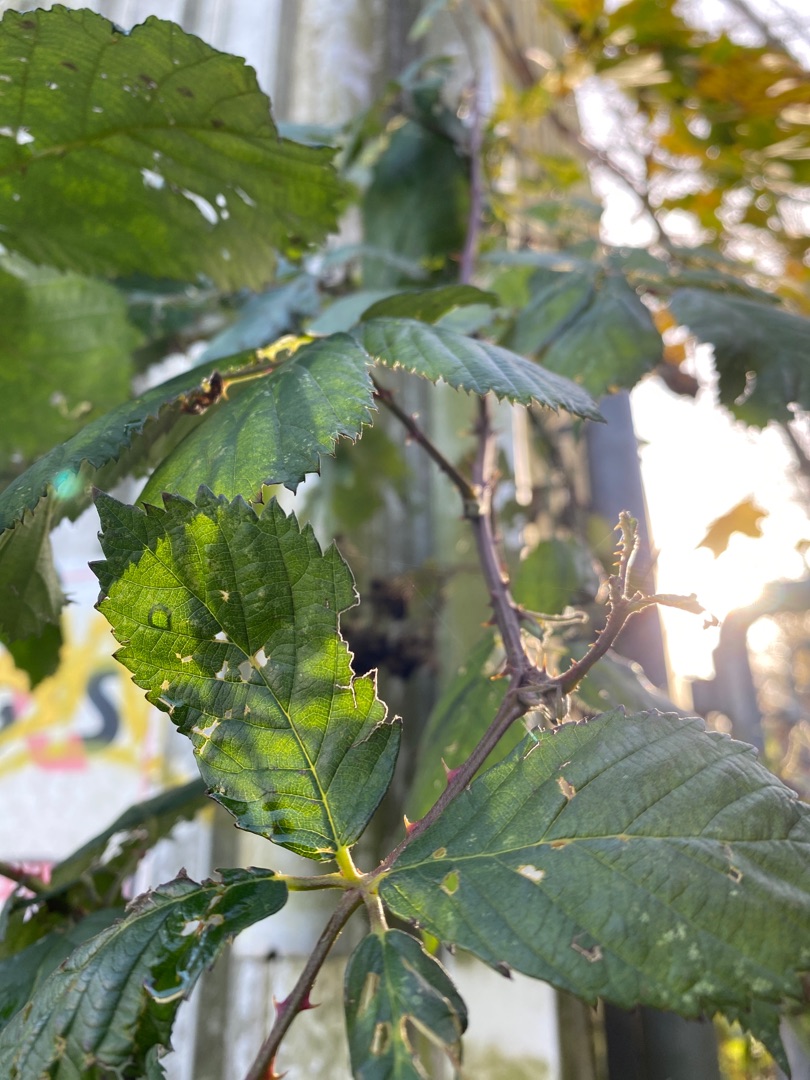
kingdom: Plantae
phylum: Tracheophyta
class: Magnoliopsida
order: Rosales
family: Rosaceae
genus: Rubus
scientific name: Rubus armeniacus
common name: Armensk brombær
